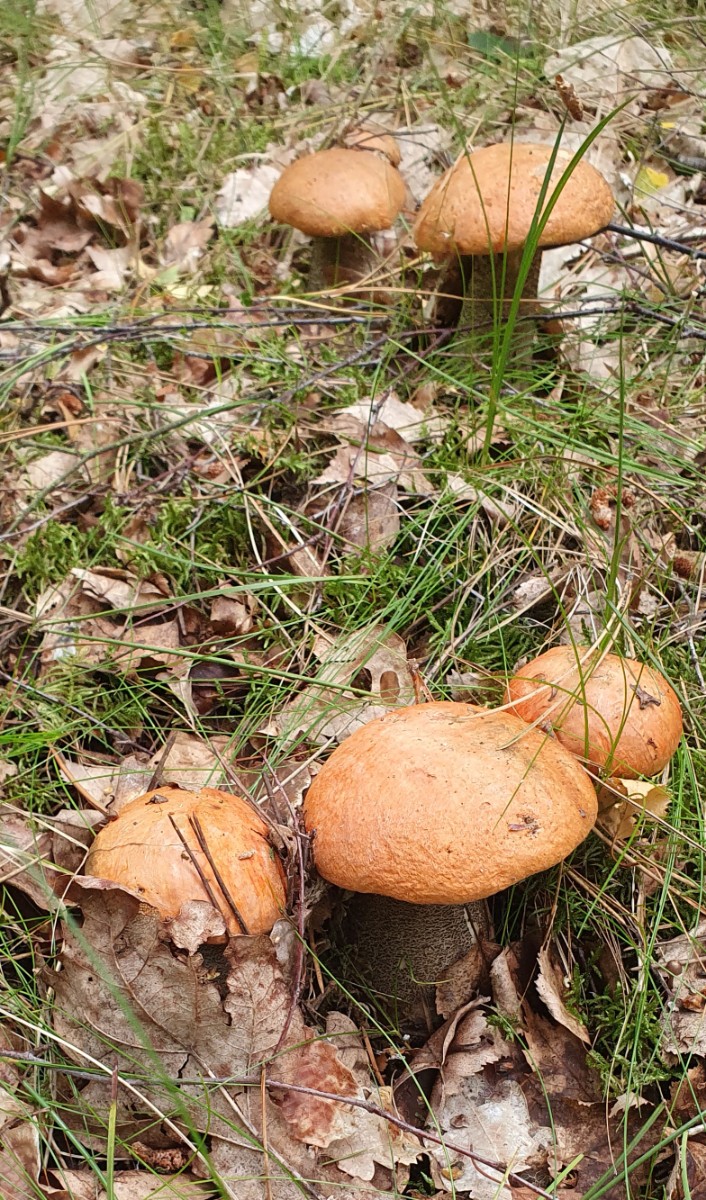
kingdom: Fungi
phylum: Basidiomycota
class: Agaricomycetes
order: Boletales
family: Boletaceae
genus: Leccinum
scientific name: Leccinum versipelle
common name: orange skælrørhat
